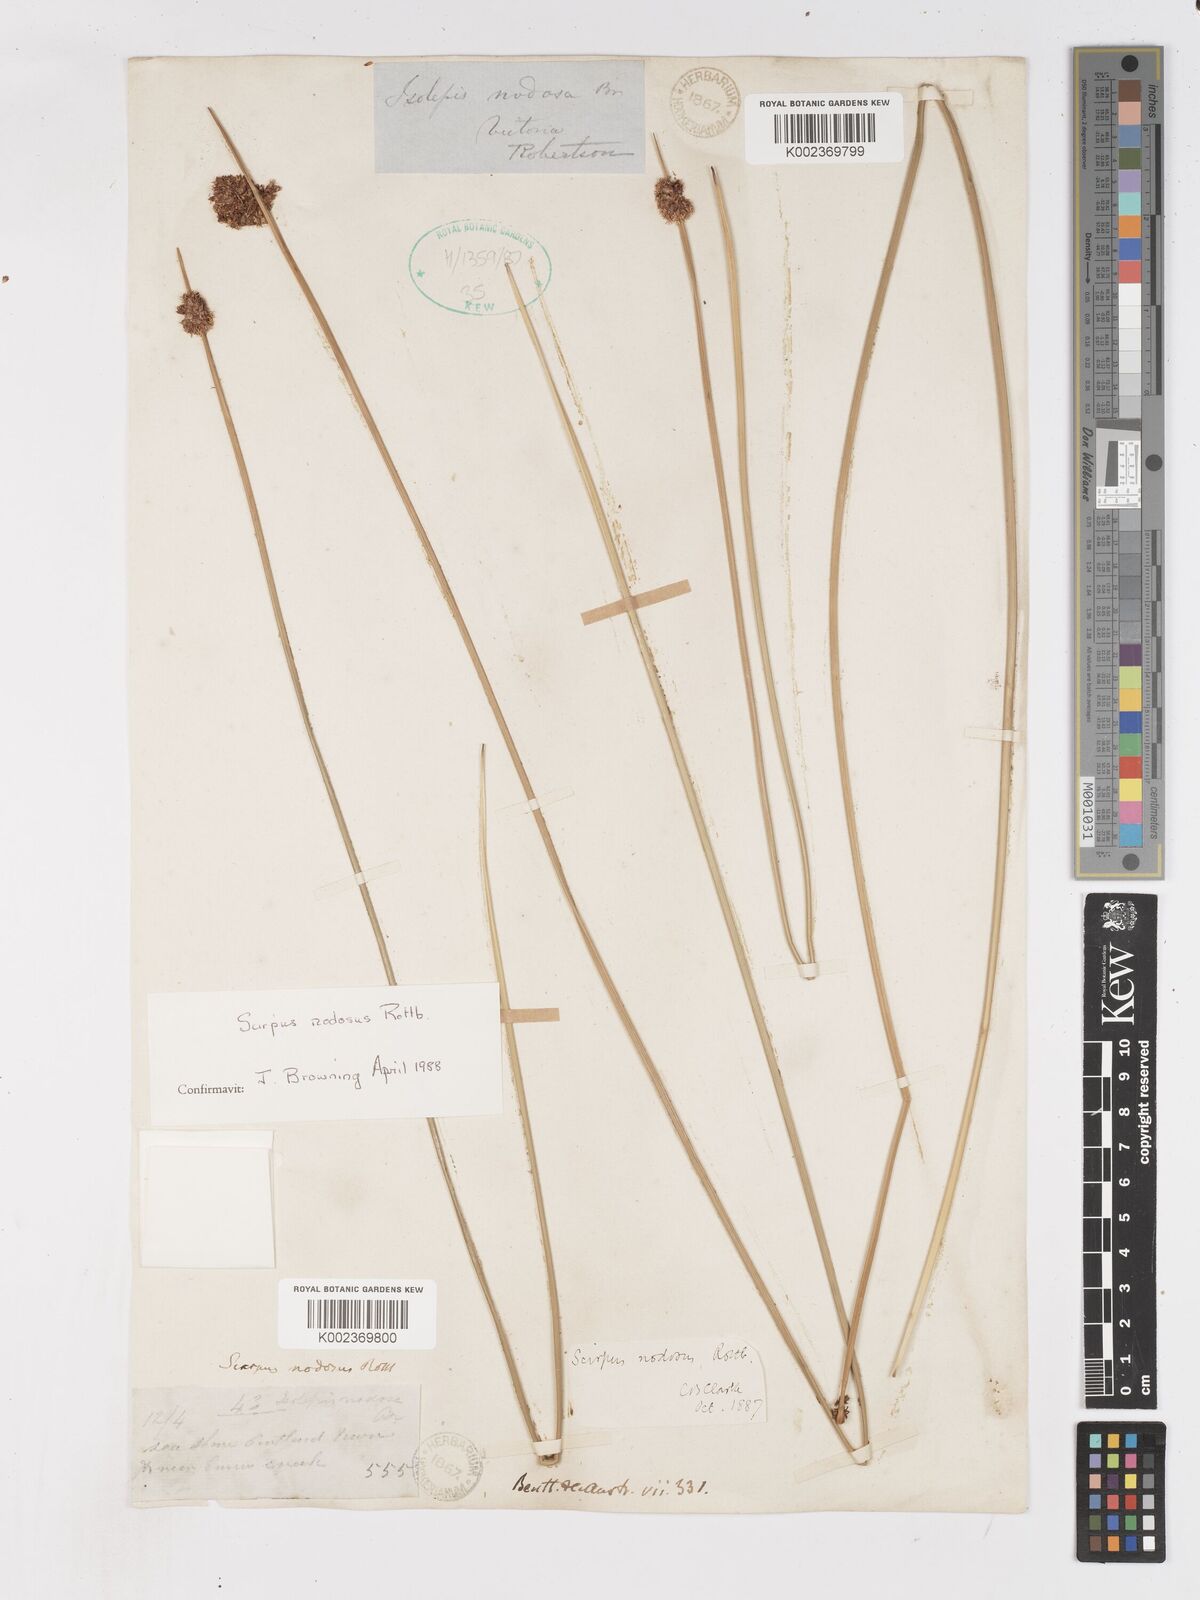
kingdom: Plantae
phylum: Tracheophyta
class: Liliopsida
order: Poales
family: Cyperaceae
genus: Ficinia
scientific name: Ficinia nodosa
